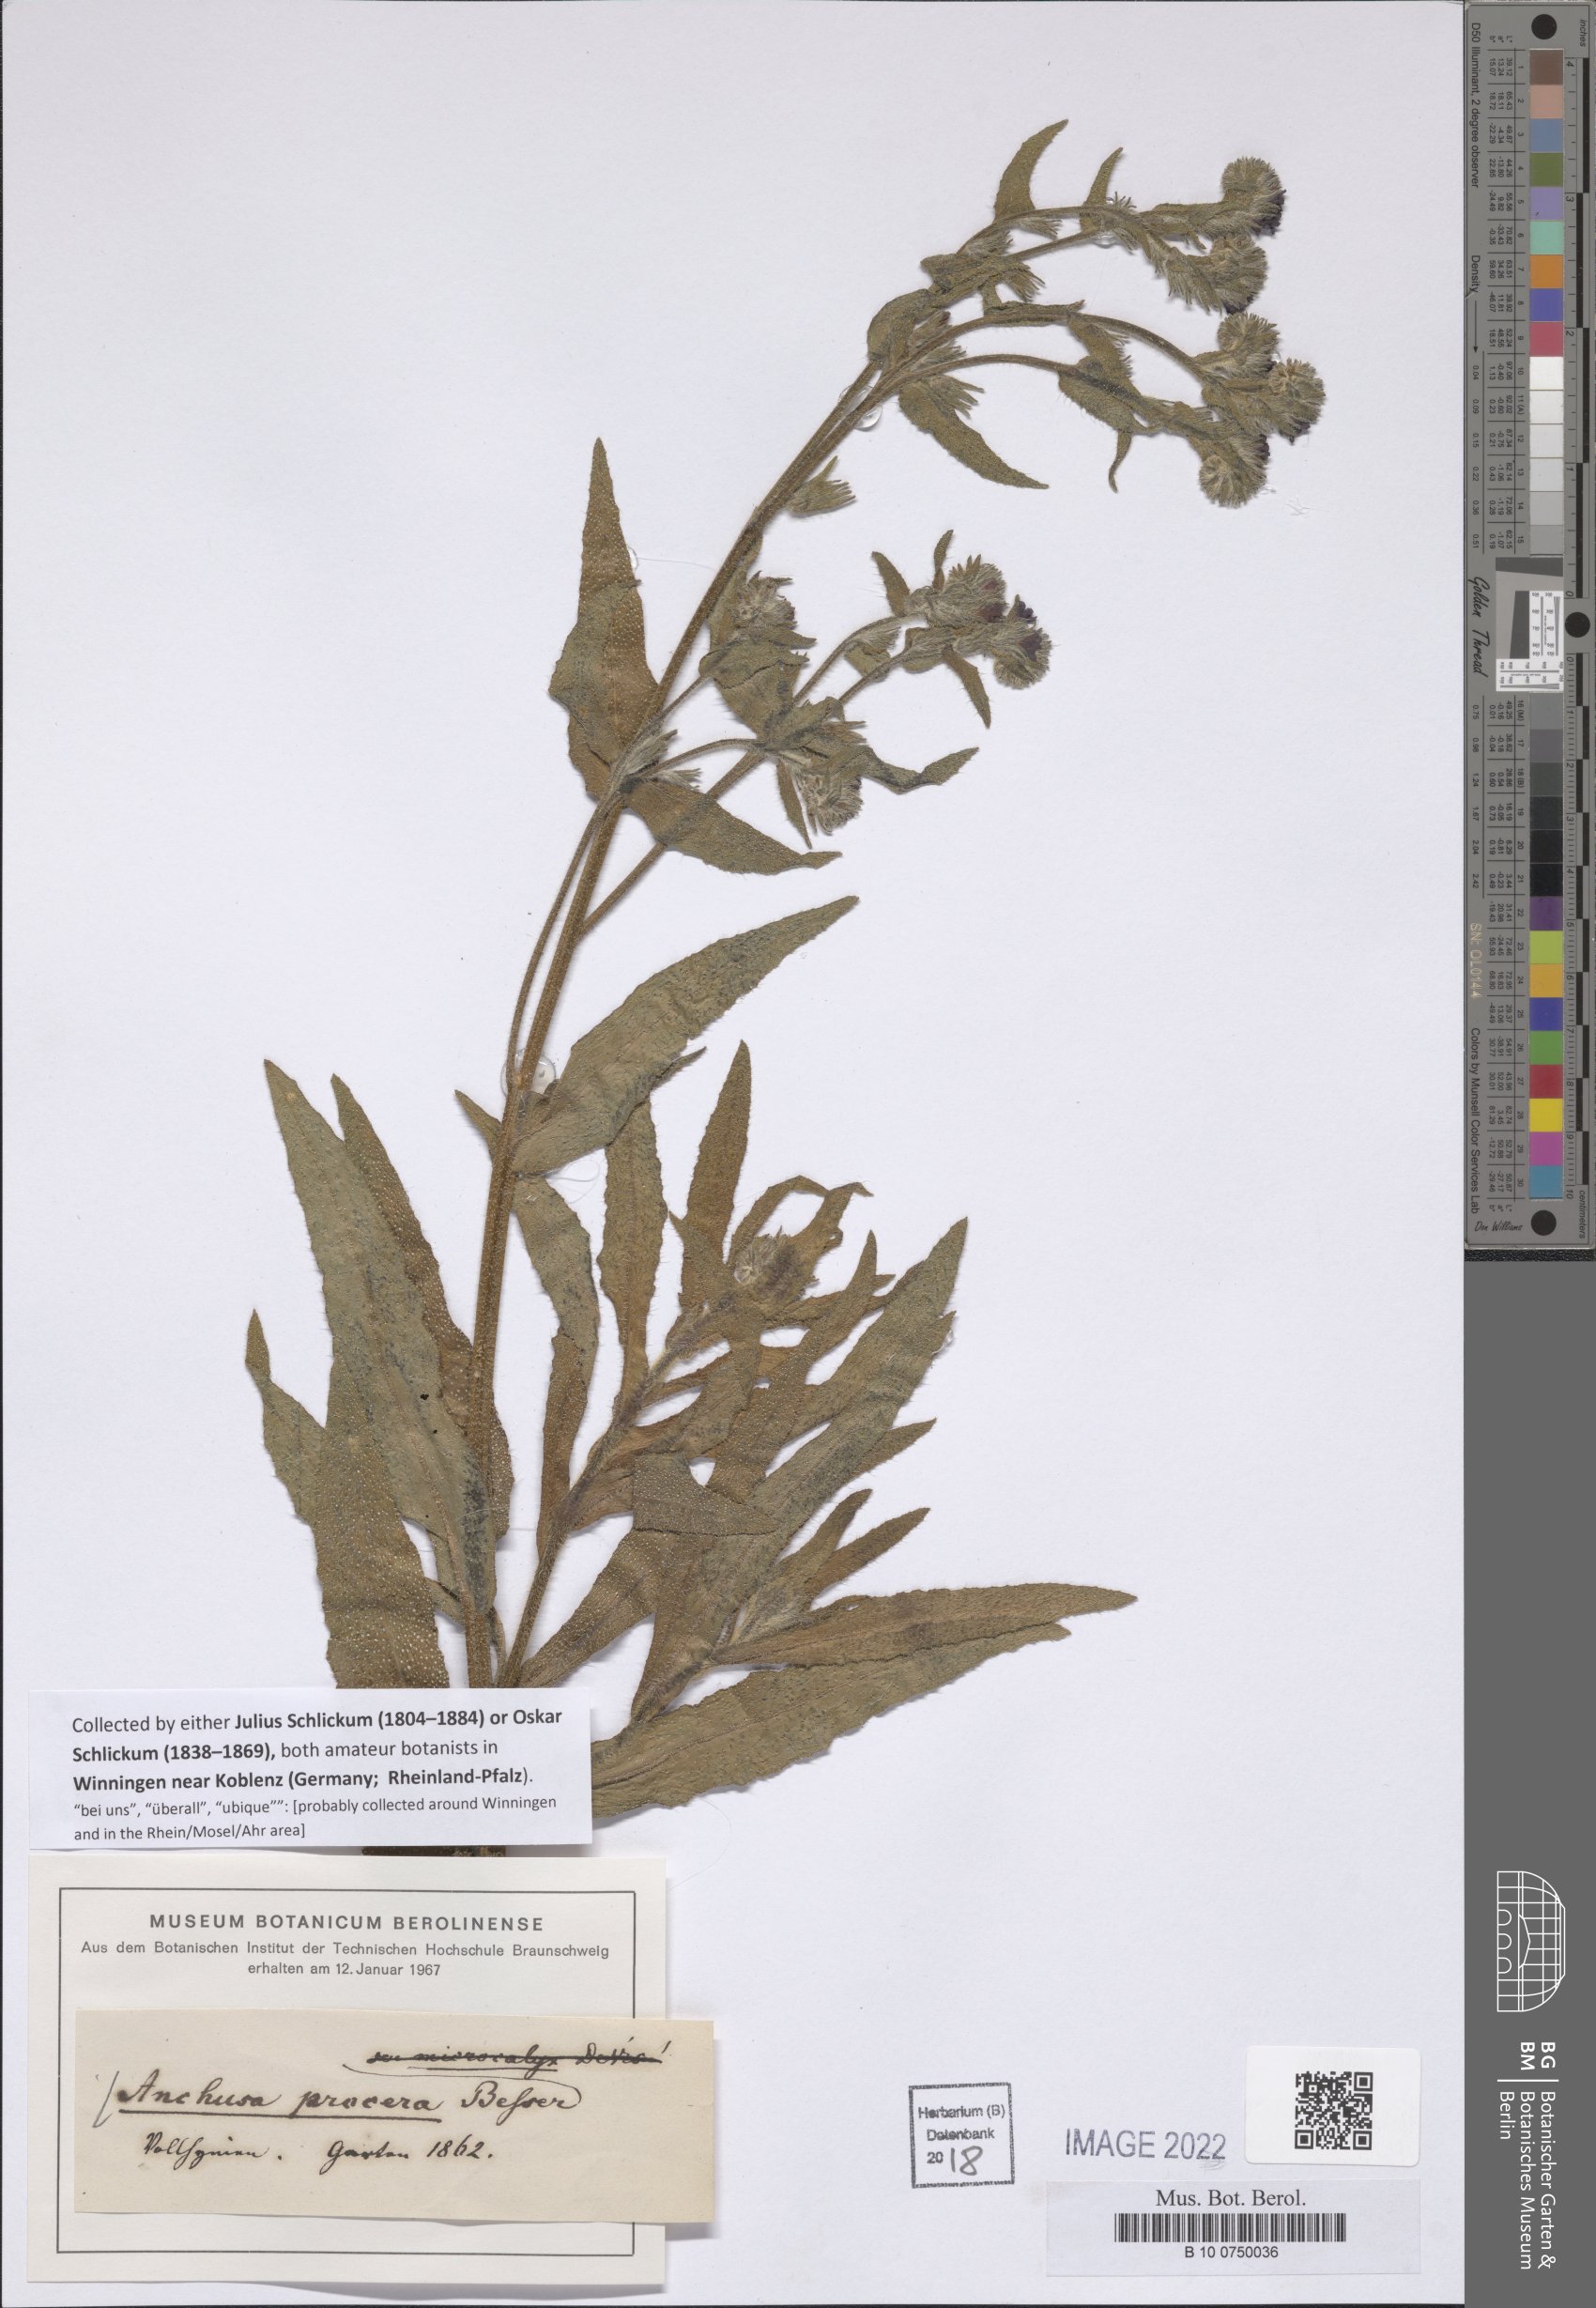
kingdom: Plantae
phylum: Tracheophyta
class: Magnoliopsida
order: Boraginales
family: Boraginaceae
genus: Anchusa
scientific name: Anchusa procera
